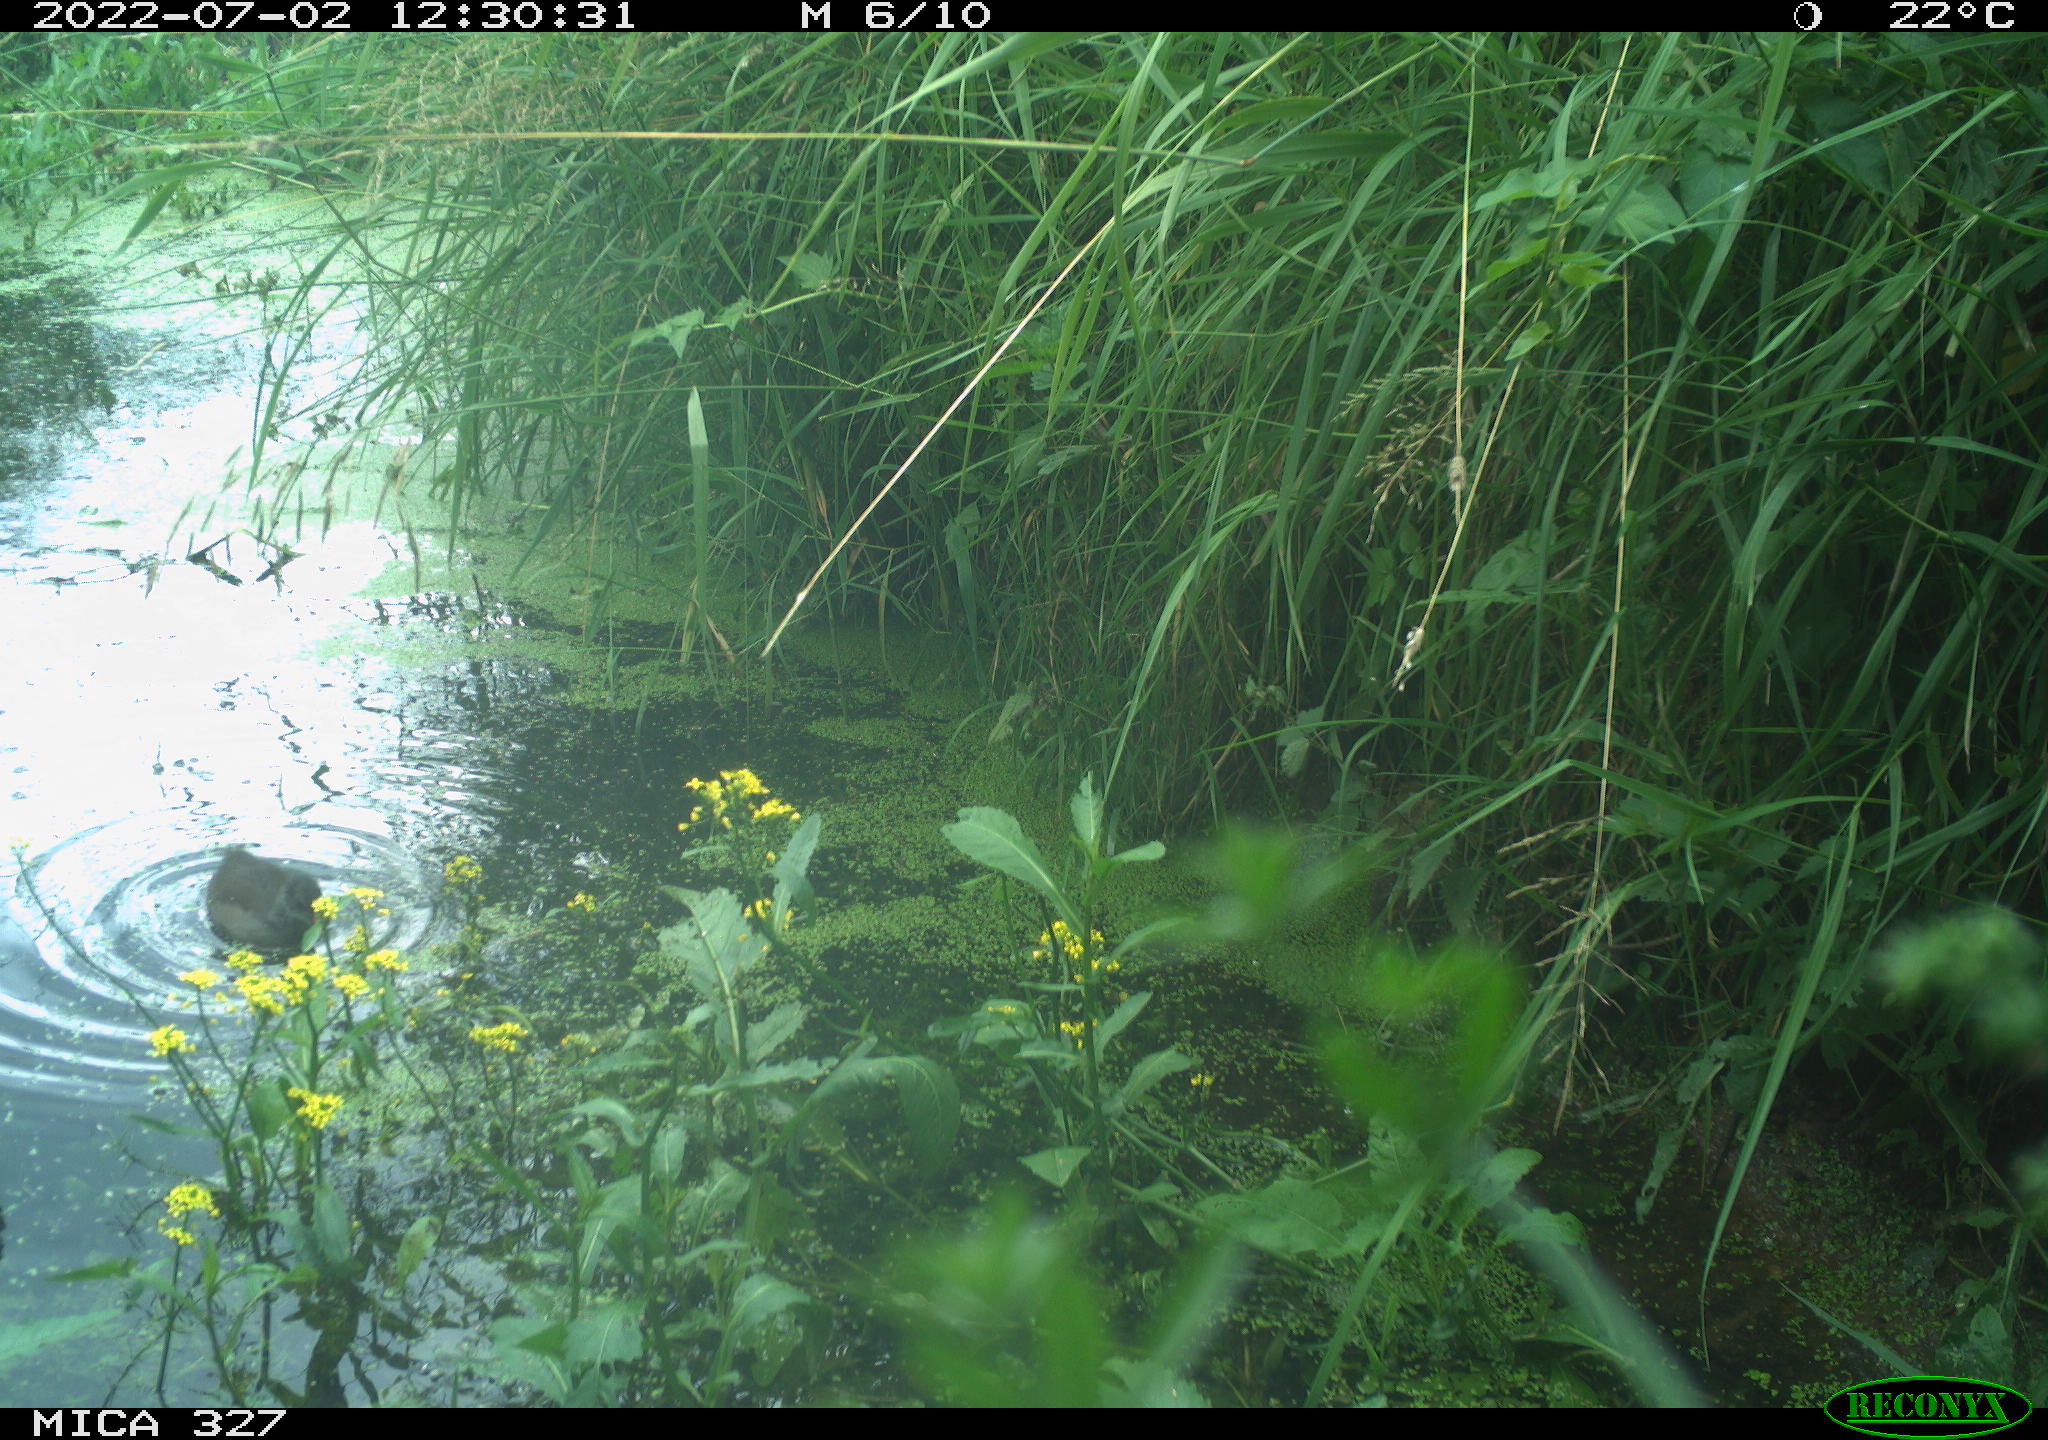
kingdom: Animalia
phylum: Chordata
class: Aves
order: Gruiformes
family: Rallidae
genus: Gallinula
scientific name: Gallinula chloropus
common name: Common moorhen
